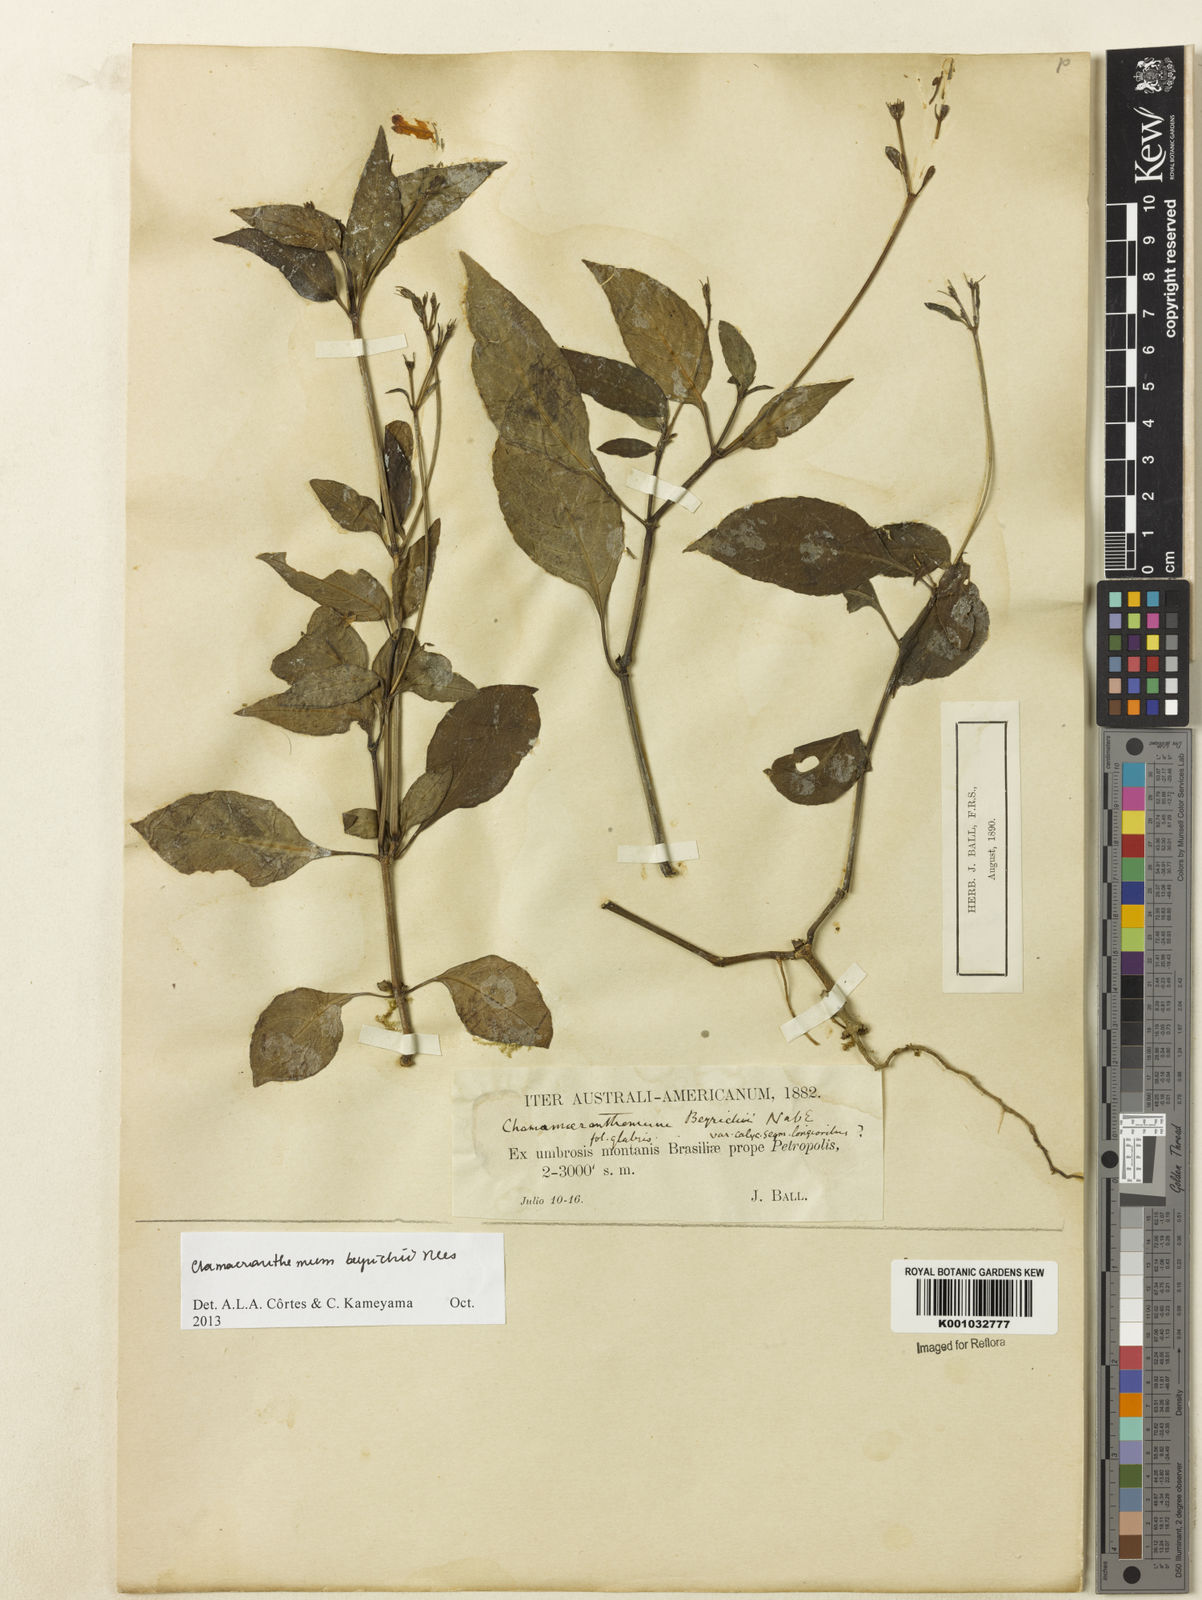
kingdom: Plantae
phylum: Tracheophyta
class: Magnoliopsida
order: Lamiales
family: Acanthaceae
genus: Chamaeranthemum
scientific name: Chamaeranthemum beyrichii
